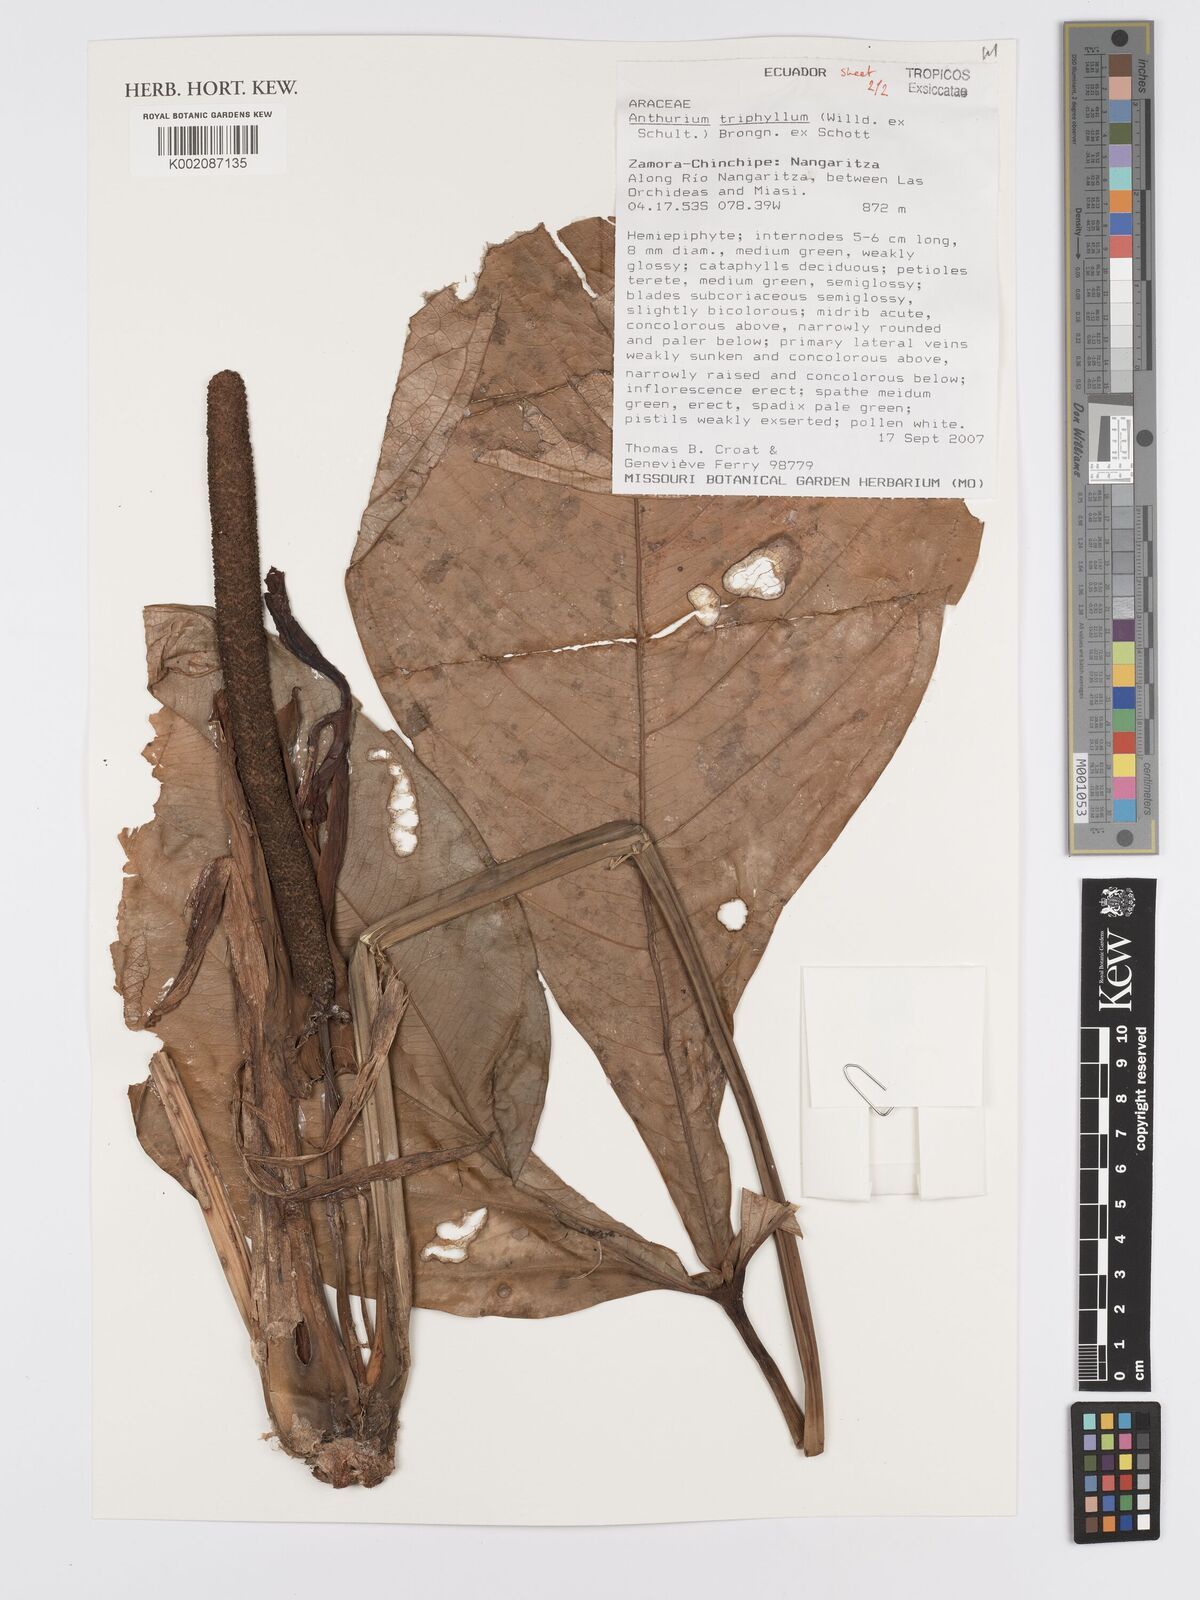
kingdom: Plantae
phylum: Tracheophyta
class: Liliopsida
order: Alismatales
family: Araceae
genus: Anthurium
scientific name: Anthurium triphyllum
